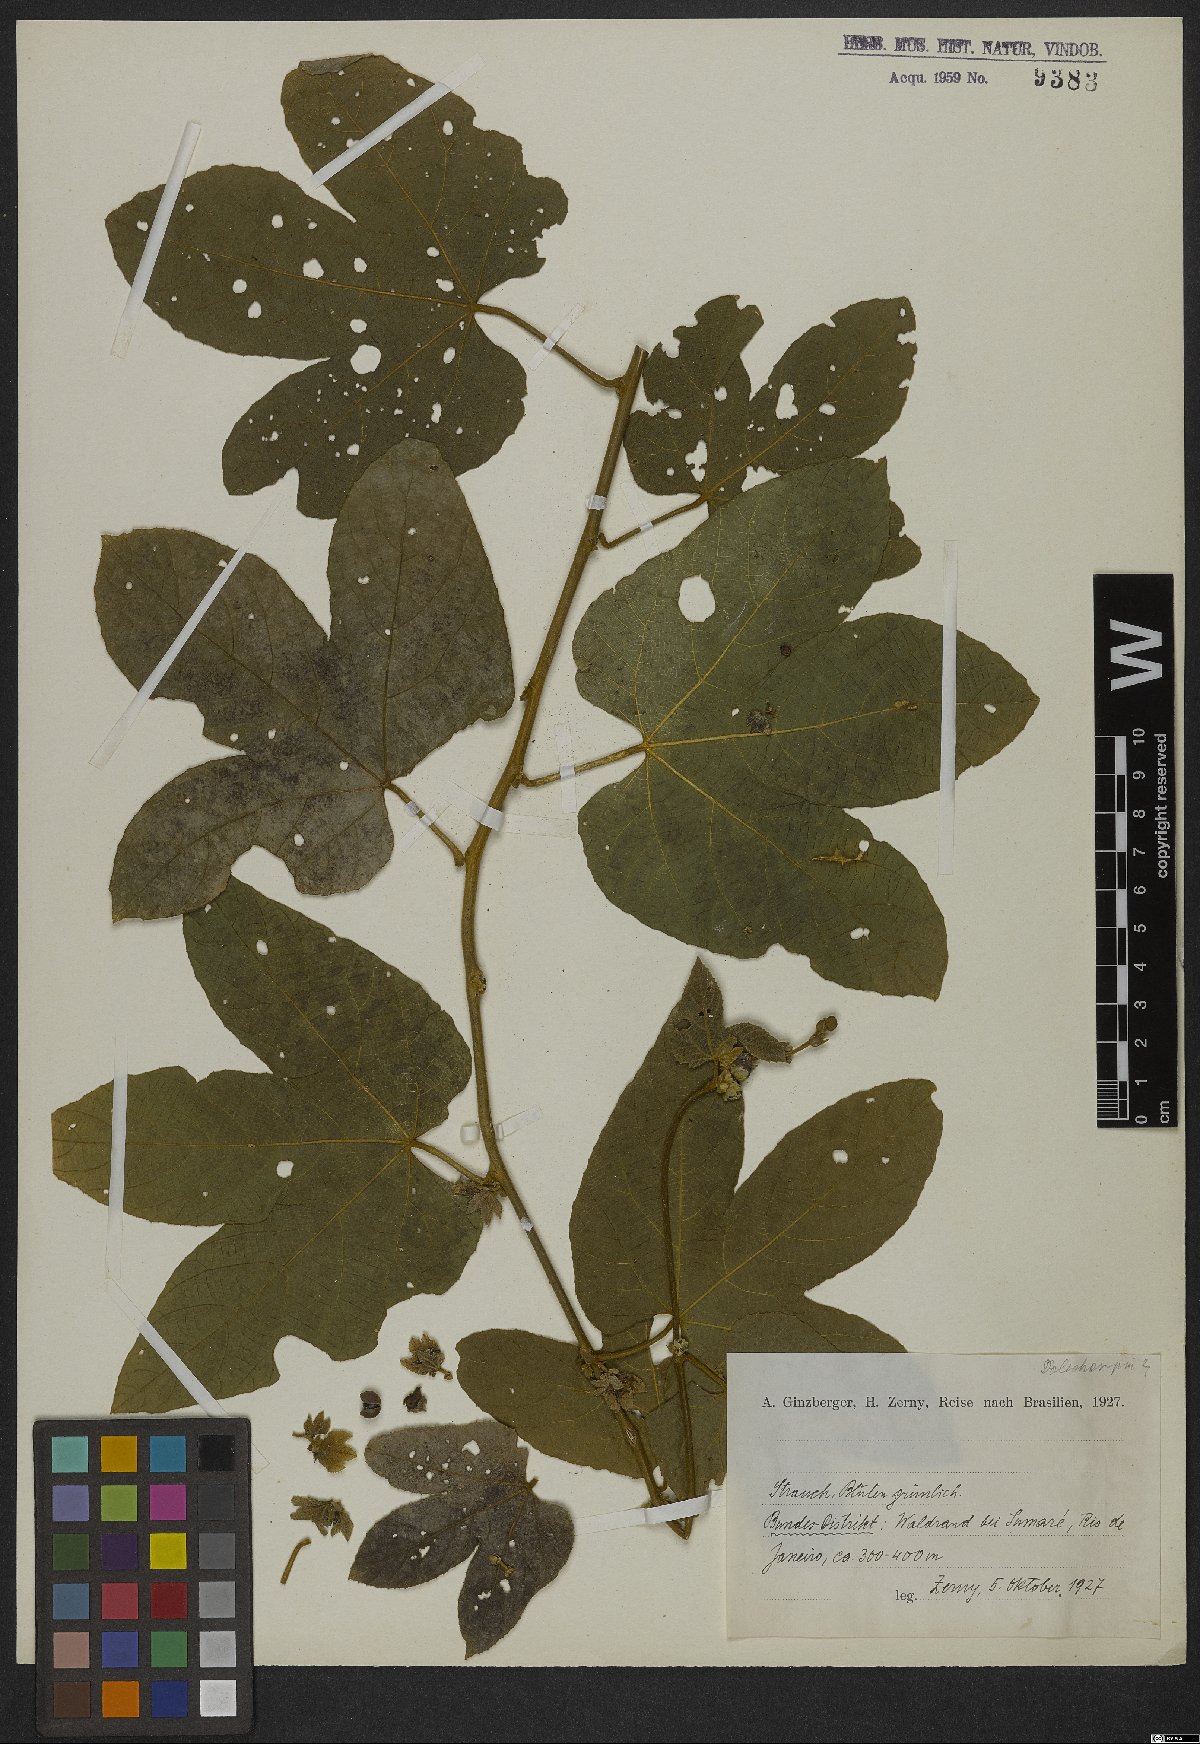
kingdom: Plantae
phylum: Tracheophyta
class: Magnoliopsida
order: Malpighiales
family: Euphorbiaceae
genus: Dalechampia
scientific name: Dalechampia ficifolia
